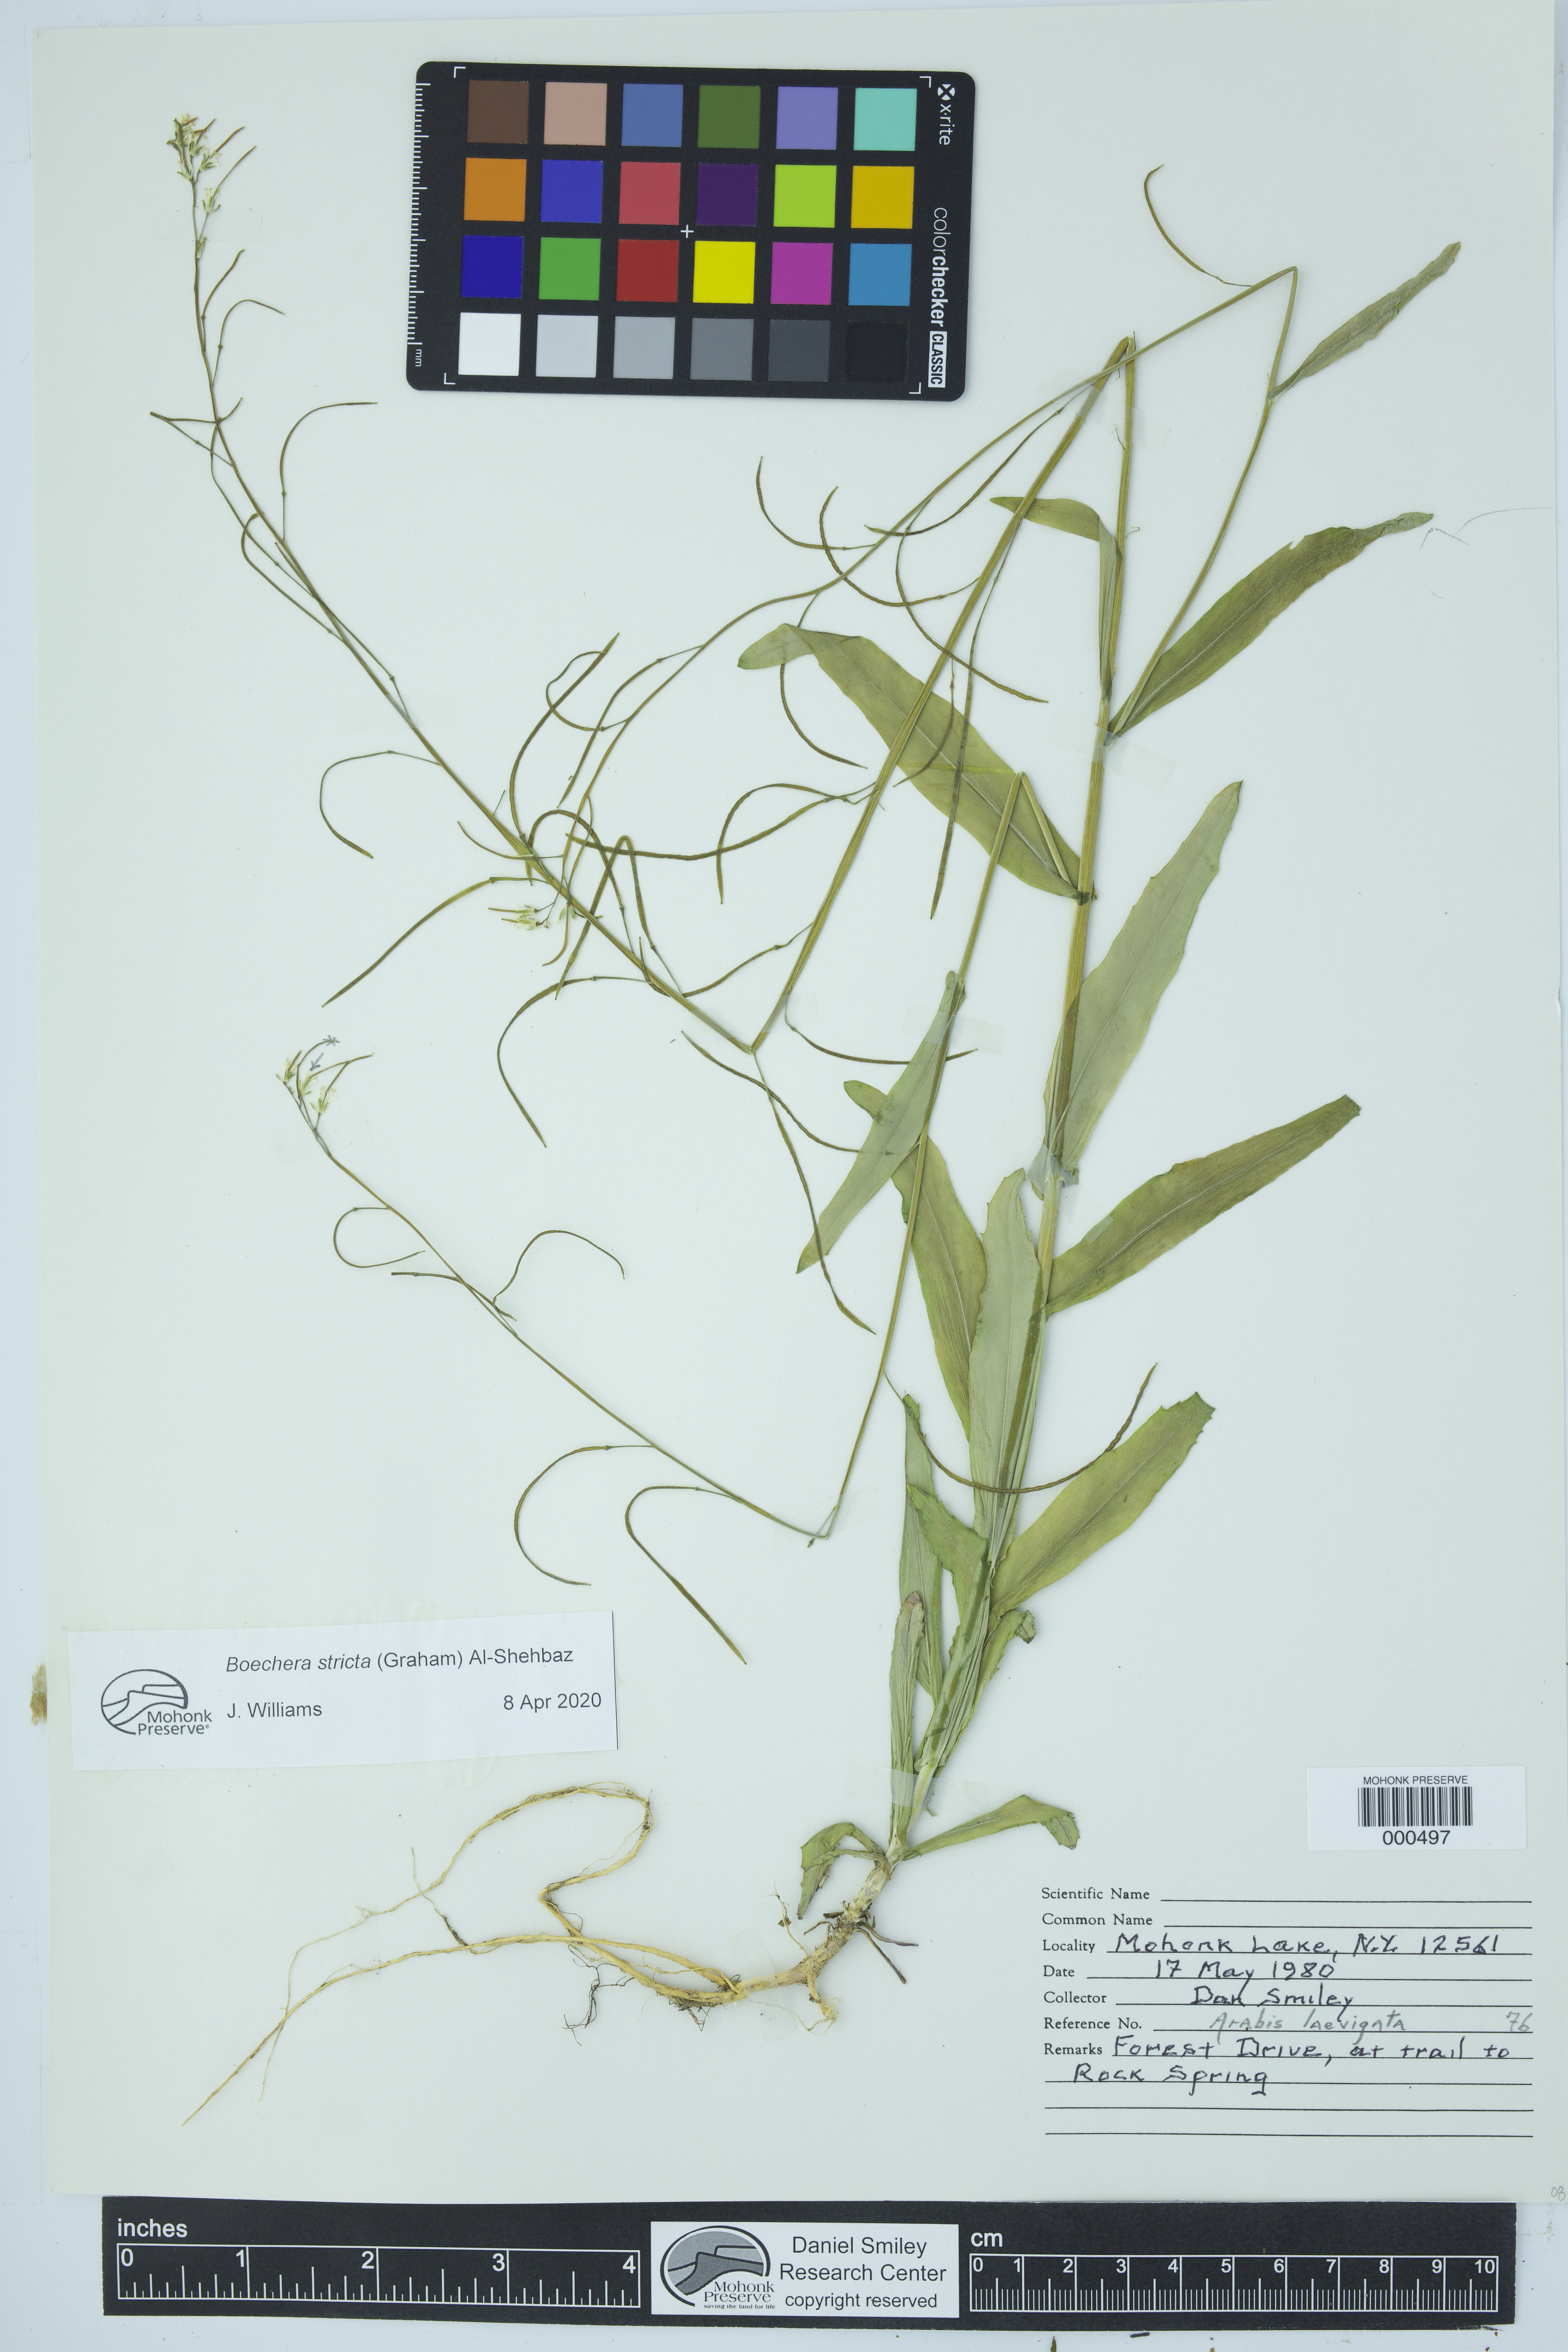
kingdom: Plantae
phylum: Tracheophyta
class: Magnoliopsida
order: Brassicales
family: Brassicaceae
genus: Boechera
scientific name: Boechera stricta
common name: Canadian rockcress
